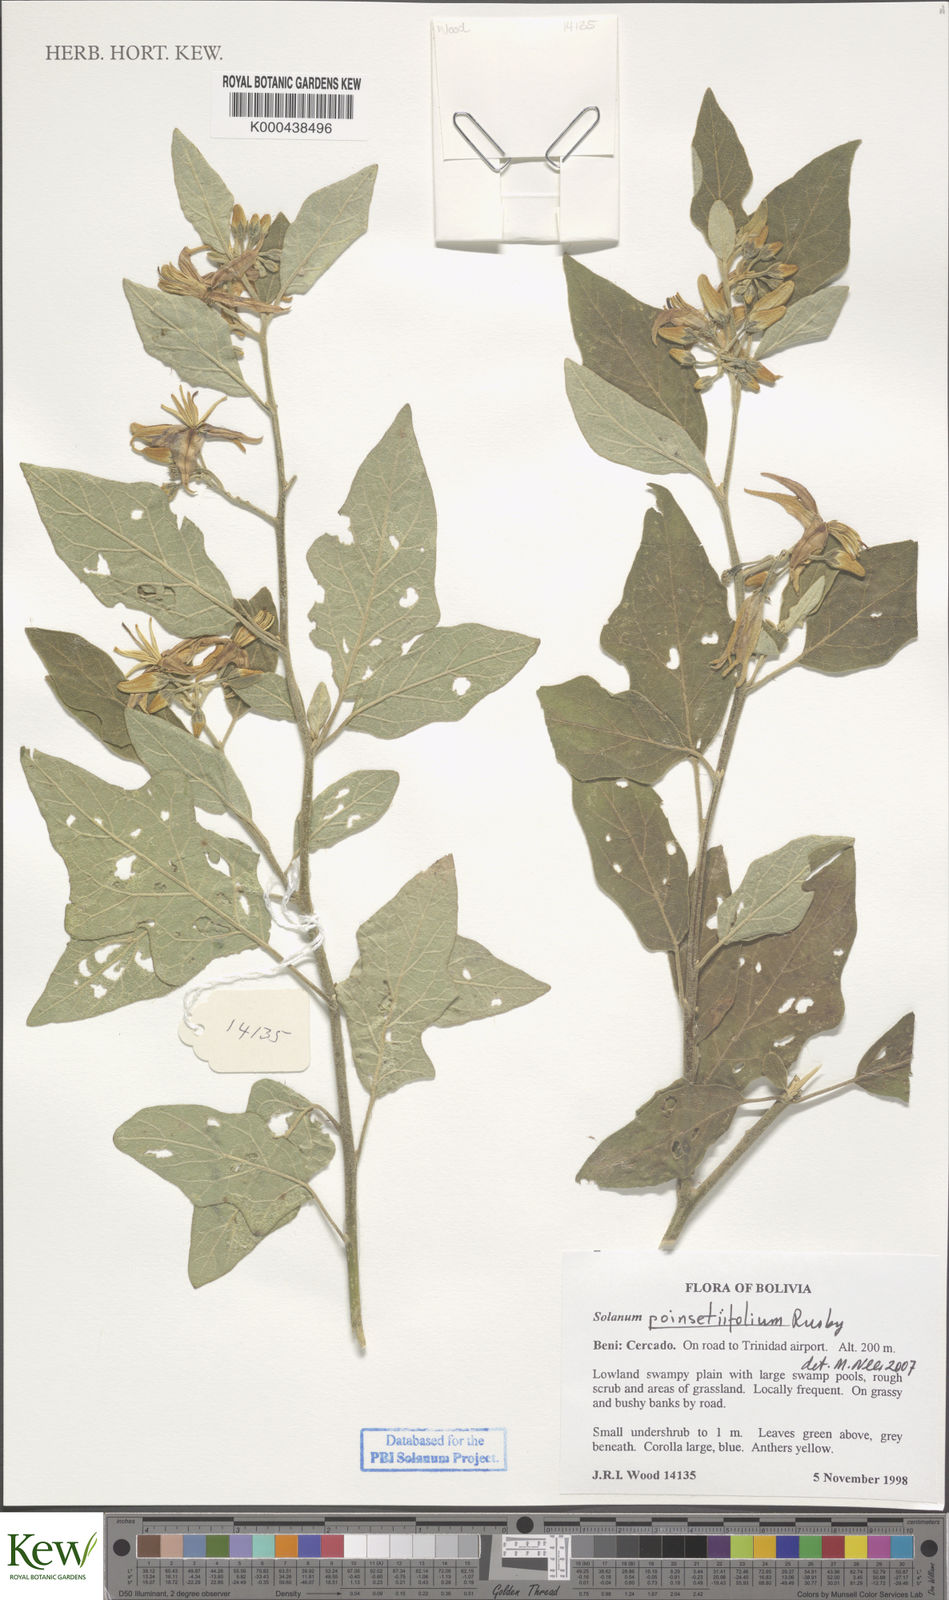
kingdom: Plantae
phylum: Tracheophyta
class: Magnoliopsida
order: Solanales
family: Solanaceae
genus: Solanum
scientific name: Solanum poinsettiifolium
